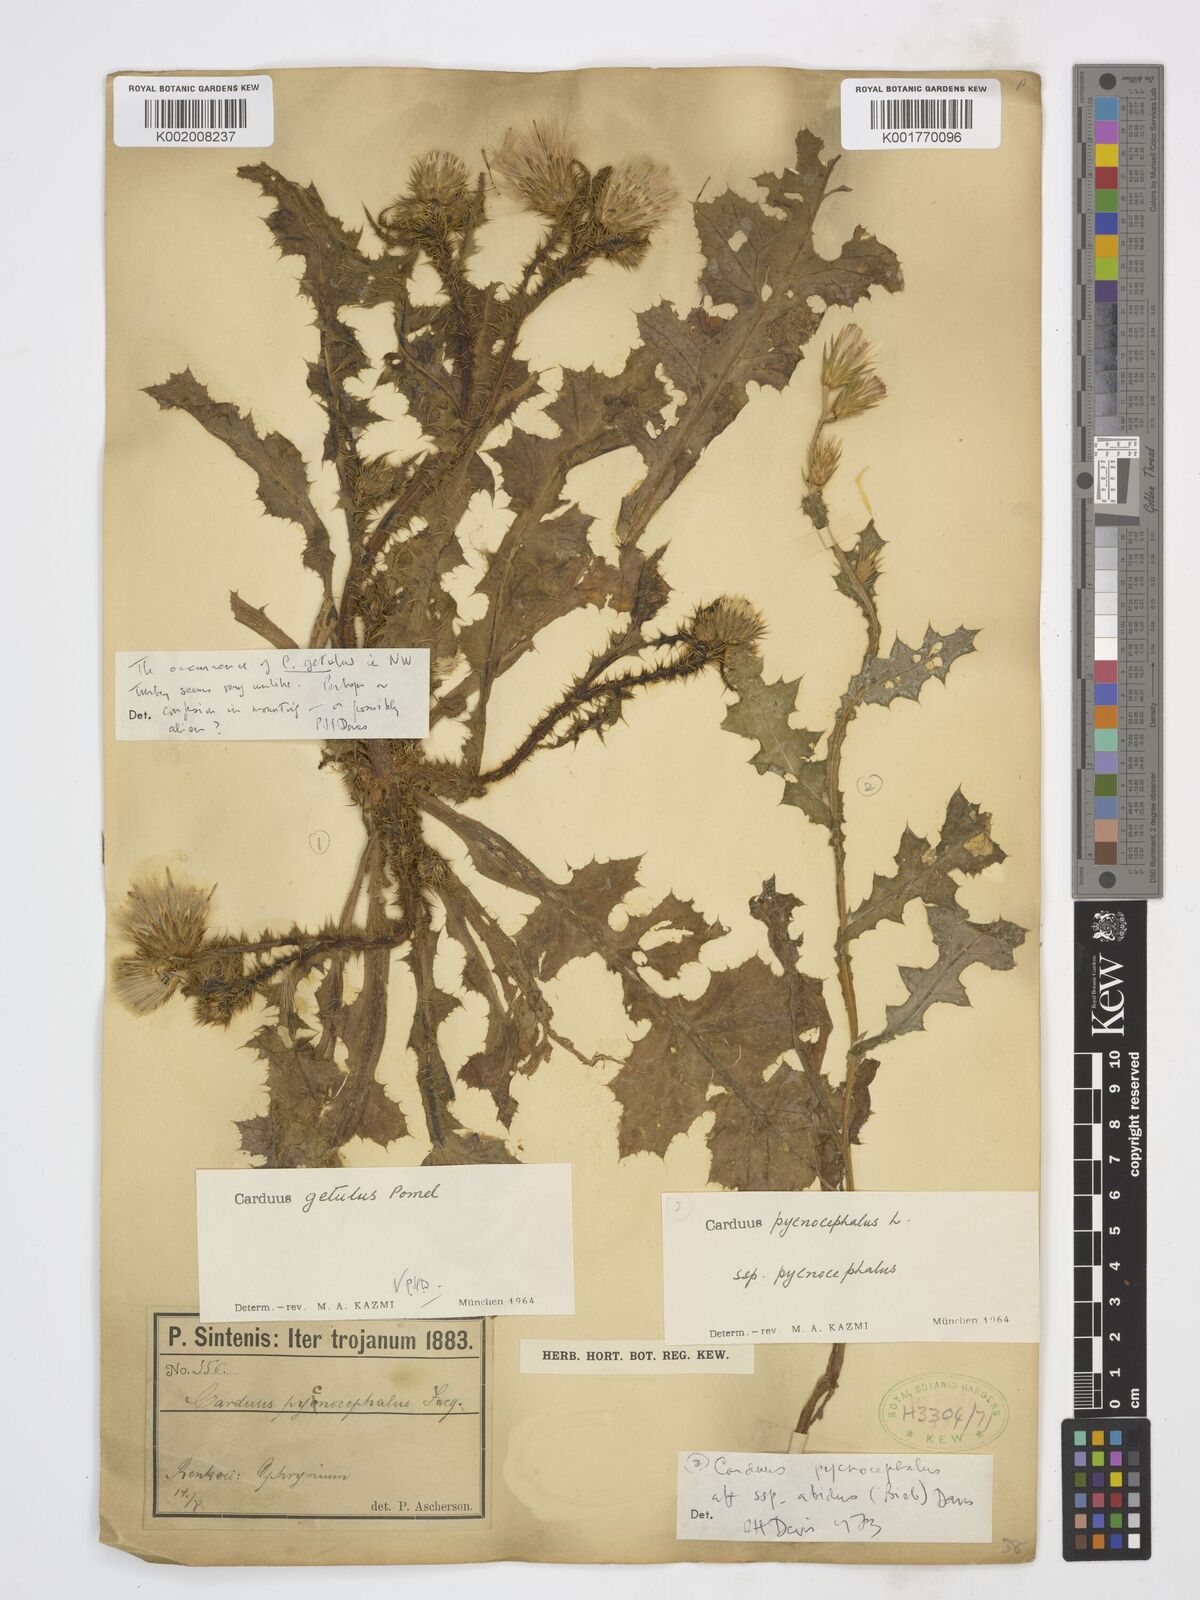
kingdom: Plantae
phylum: Tracheophyta
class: Magnoliopsida
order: Asterales
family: Asteraceae
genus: Carduus
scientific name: Carduus pycnocephalus
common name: Plymouth thistle
